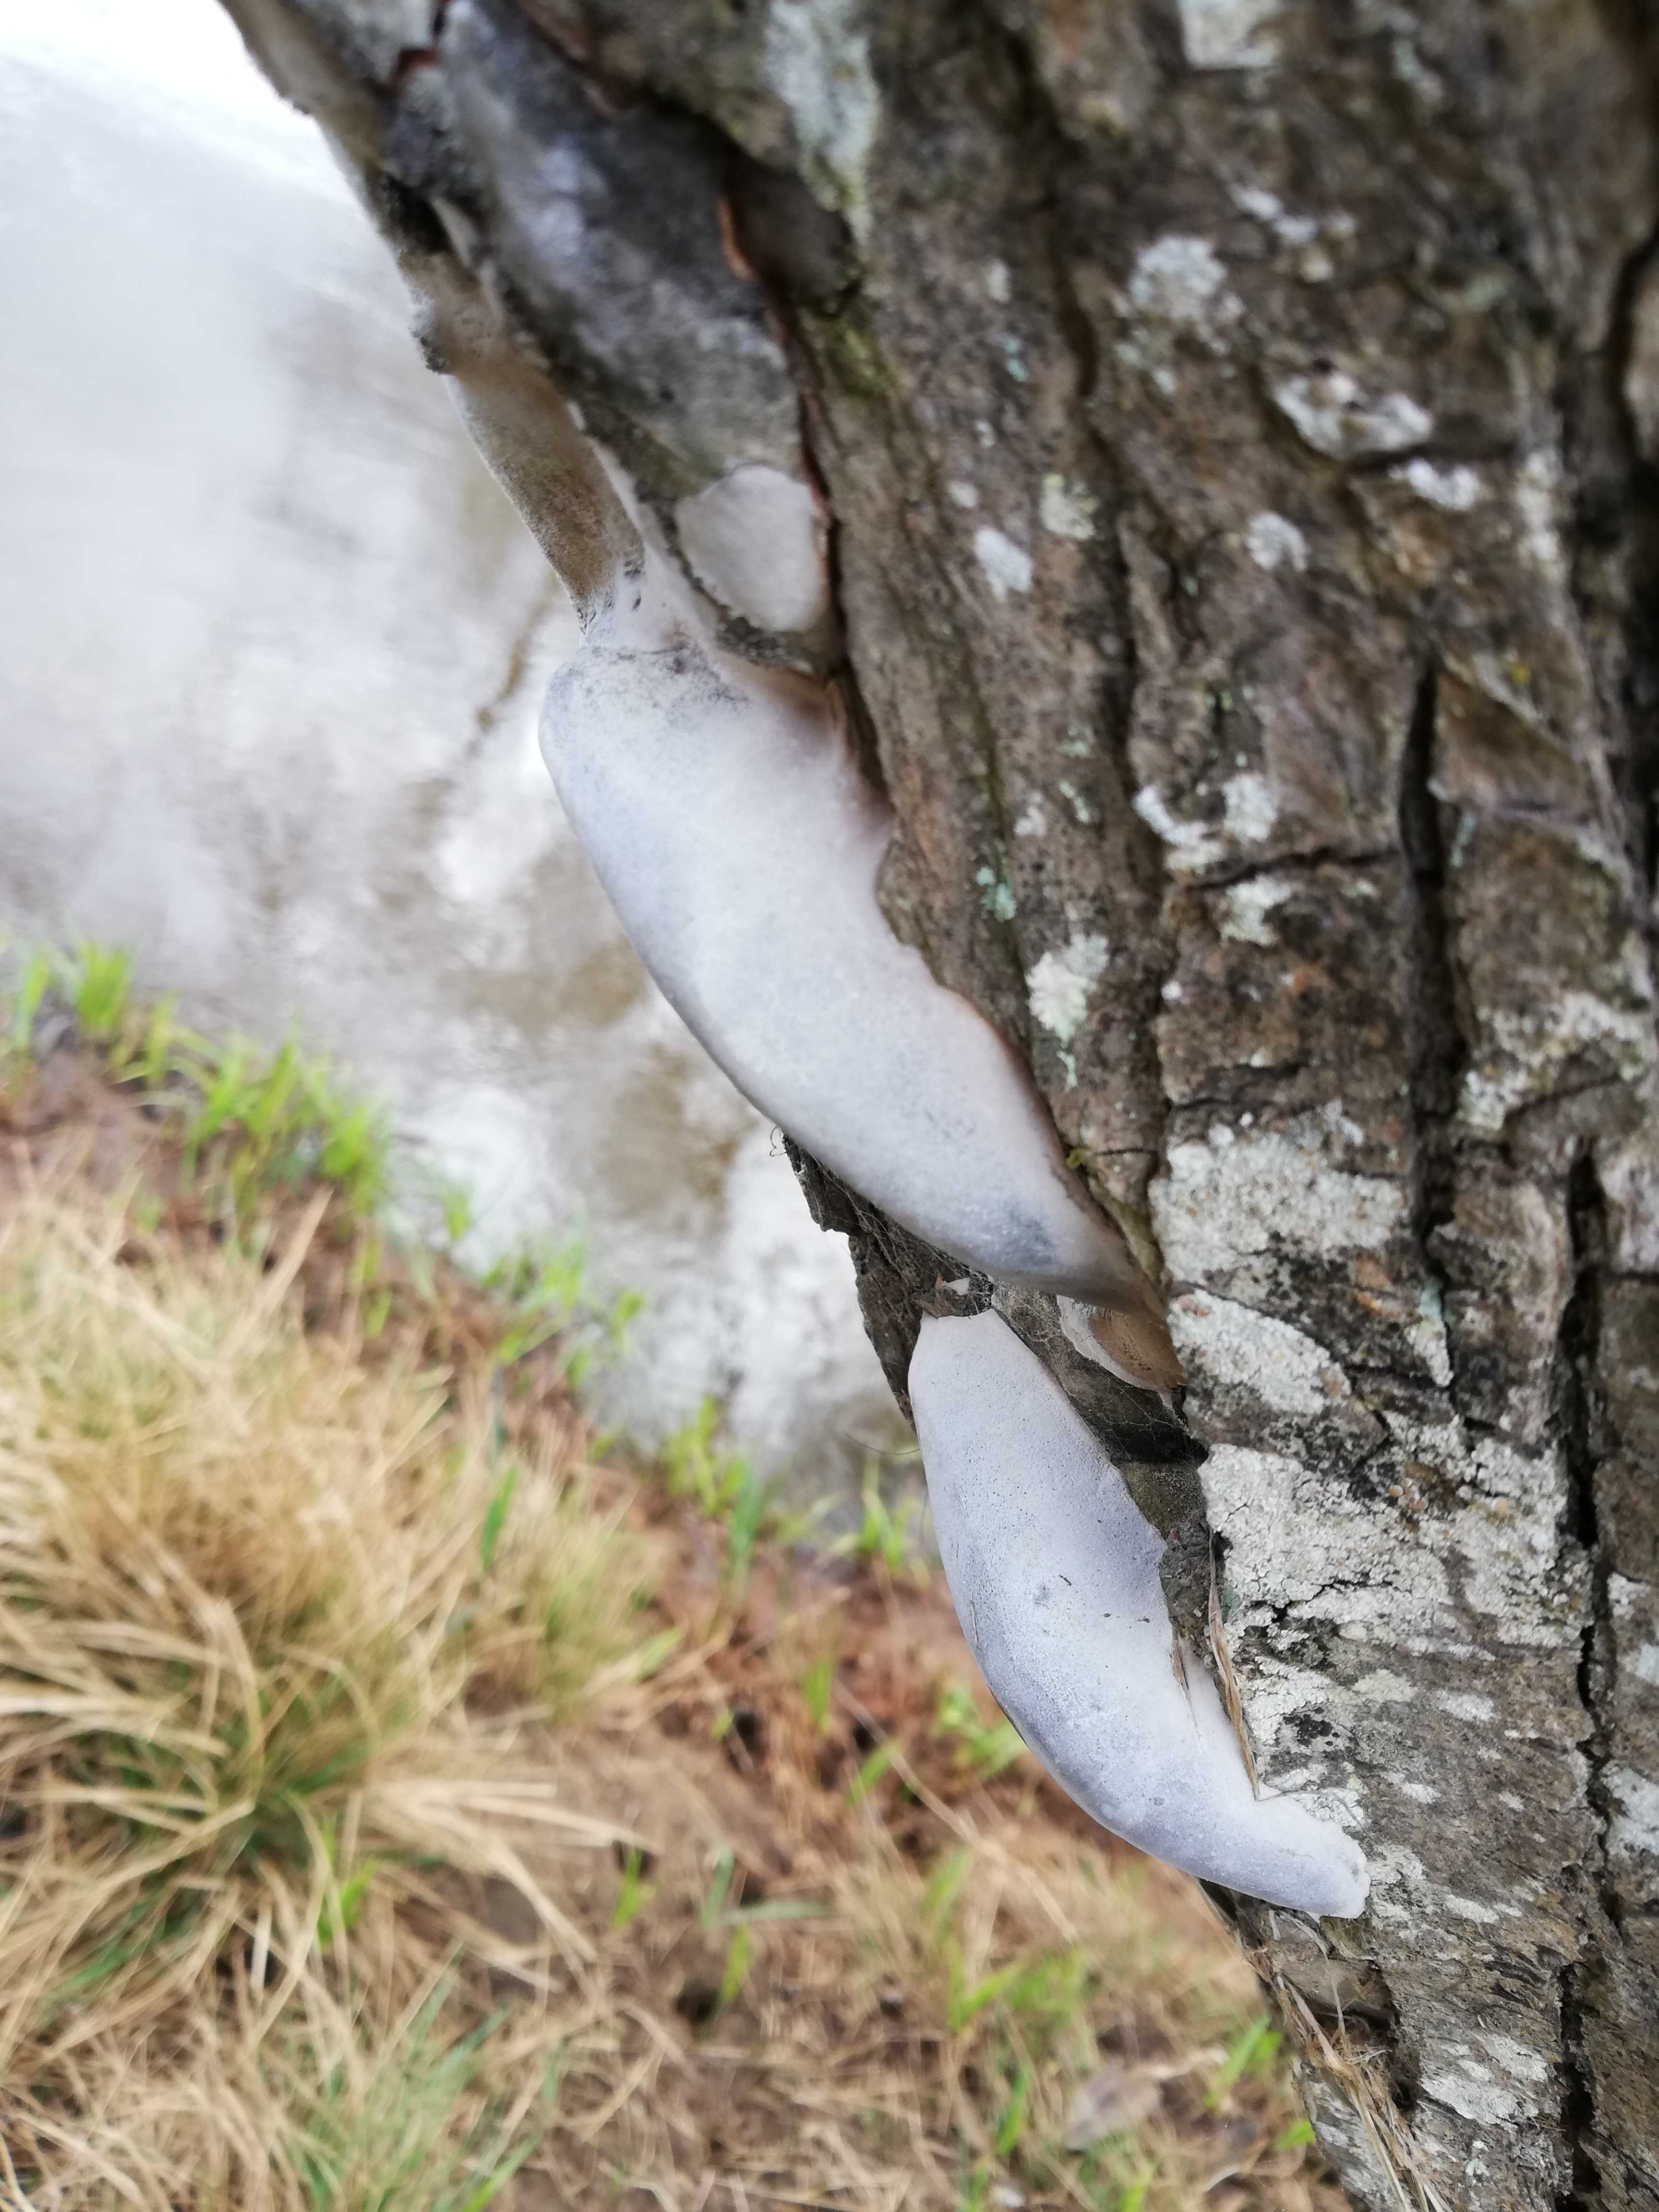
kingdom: Fungi
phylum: Basidiomycota
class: Agaricomycetes
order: Hymenochaetales
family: Hymenochaetaceae
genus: Phellinus
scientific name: Phellinus igniarius
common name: almindelig ildporesvamp
